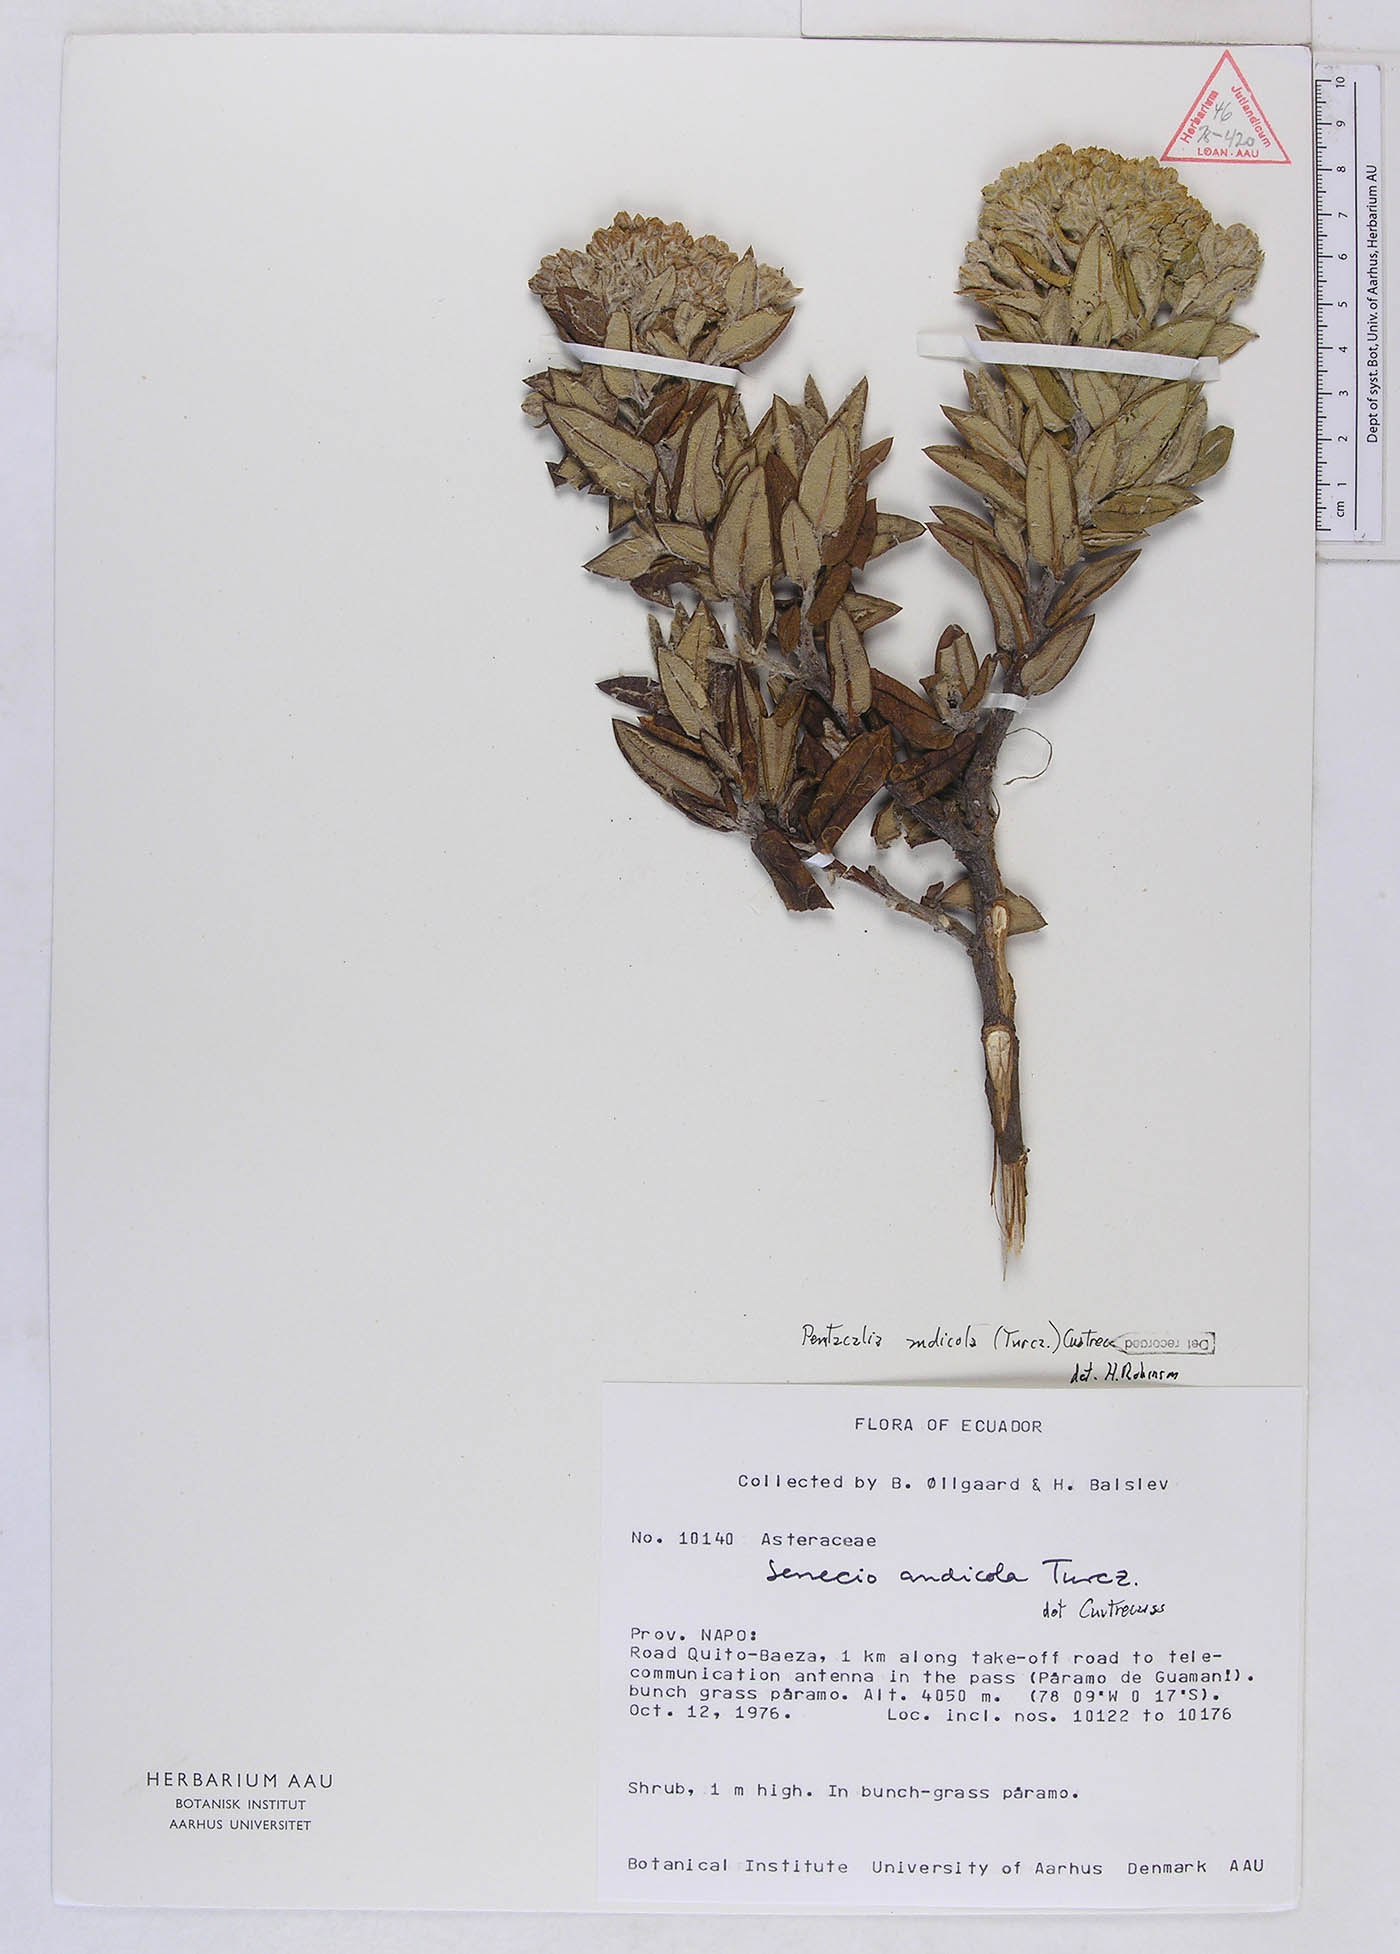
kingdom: Plantae
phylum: Tracheophyta
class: Magnoliopsida
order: Asterales
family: Asteraceae
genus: Monticalia
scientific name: Monticalia andicola
